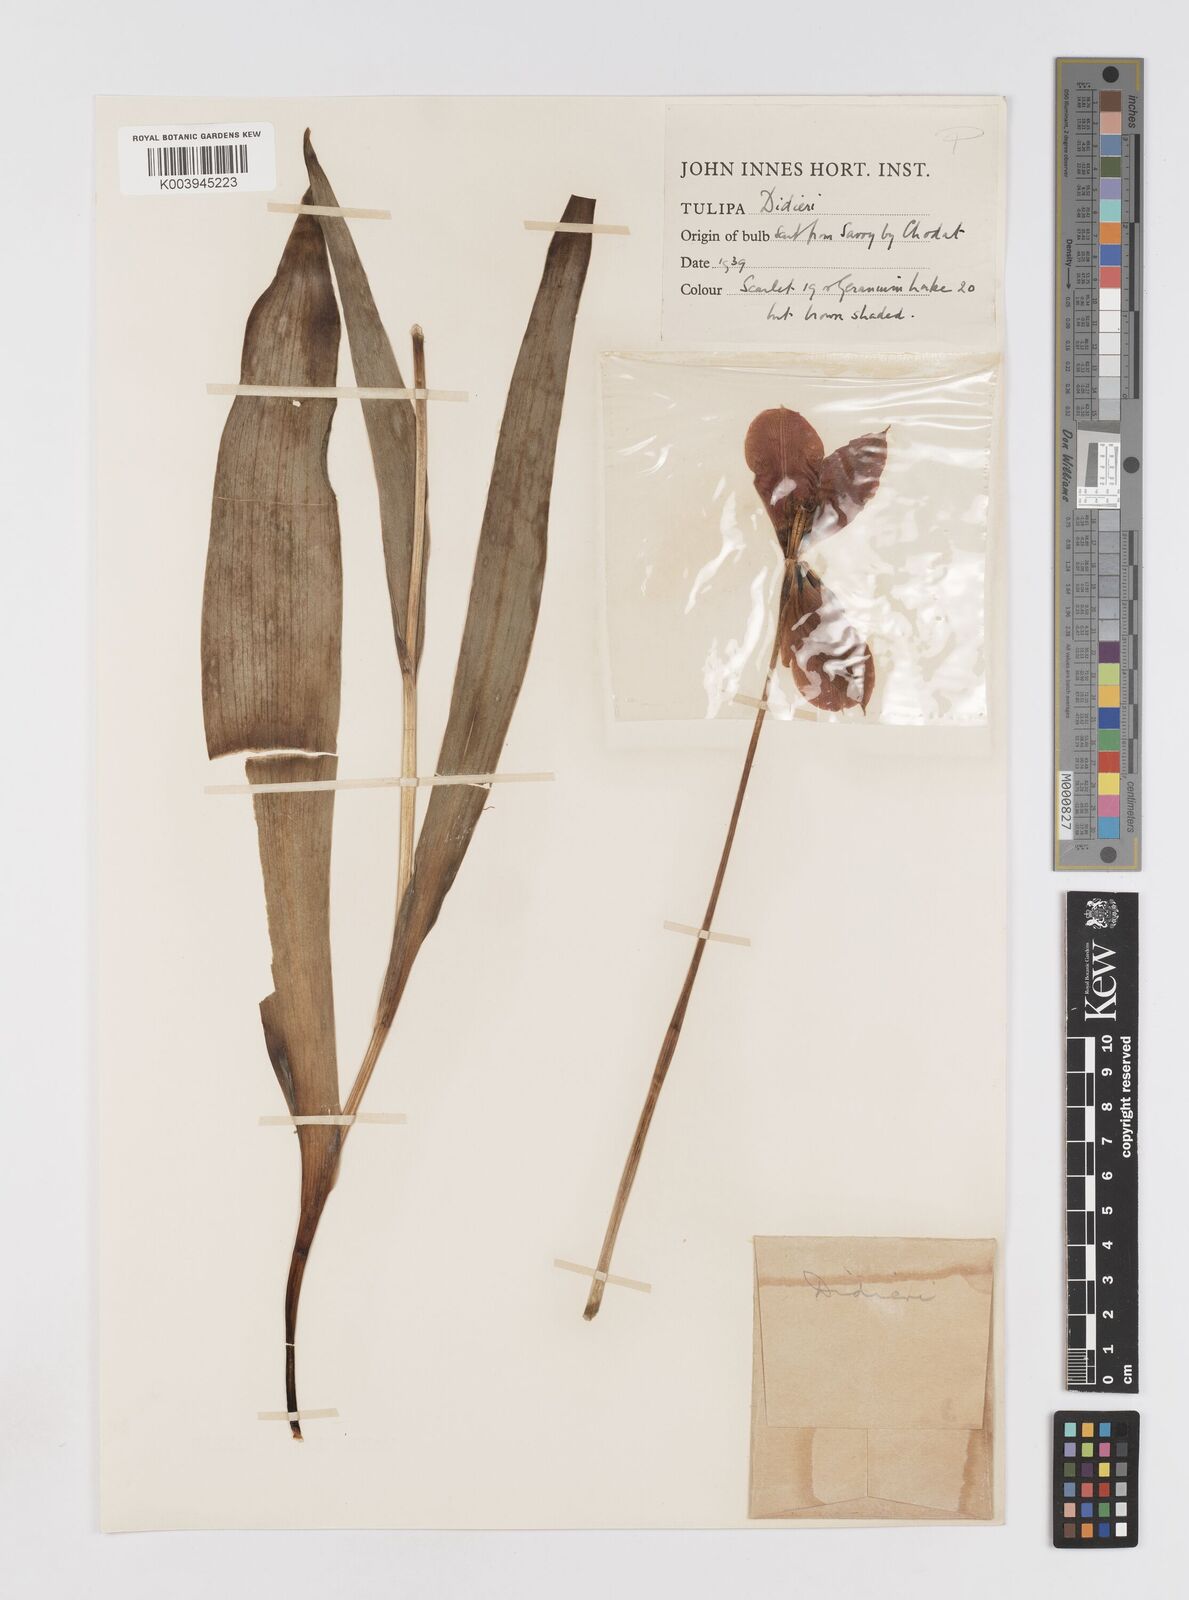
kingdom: Plantae
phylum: Tracheophyta
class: Liliopsida
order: Liliales
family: Liliaceae
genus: Tulipa
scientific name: Tulipa gesneriana
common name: Garden tulip
